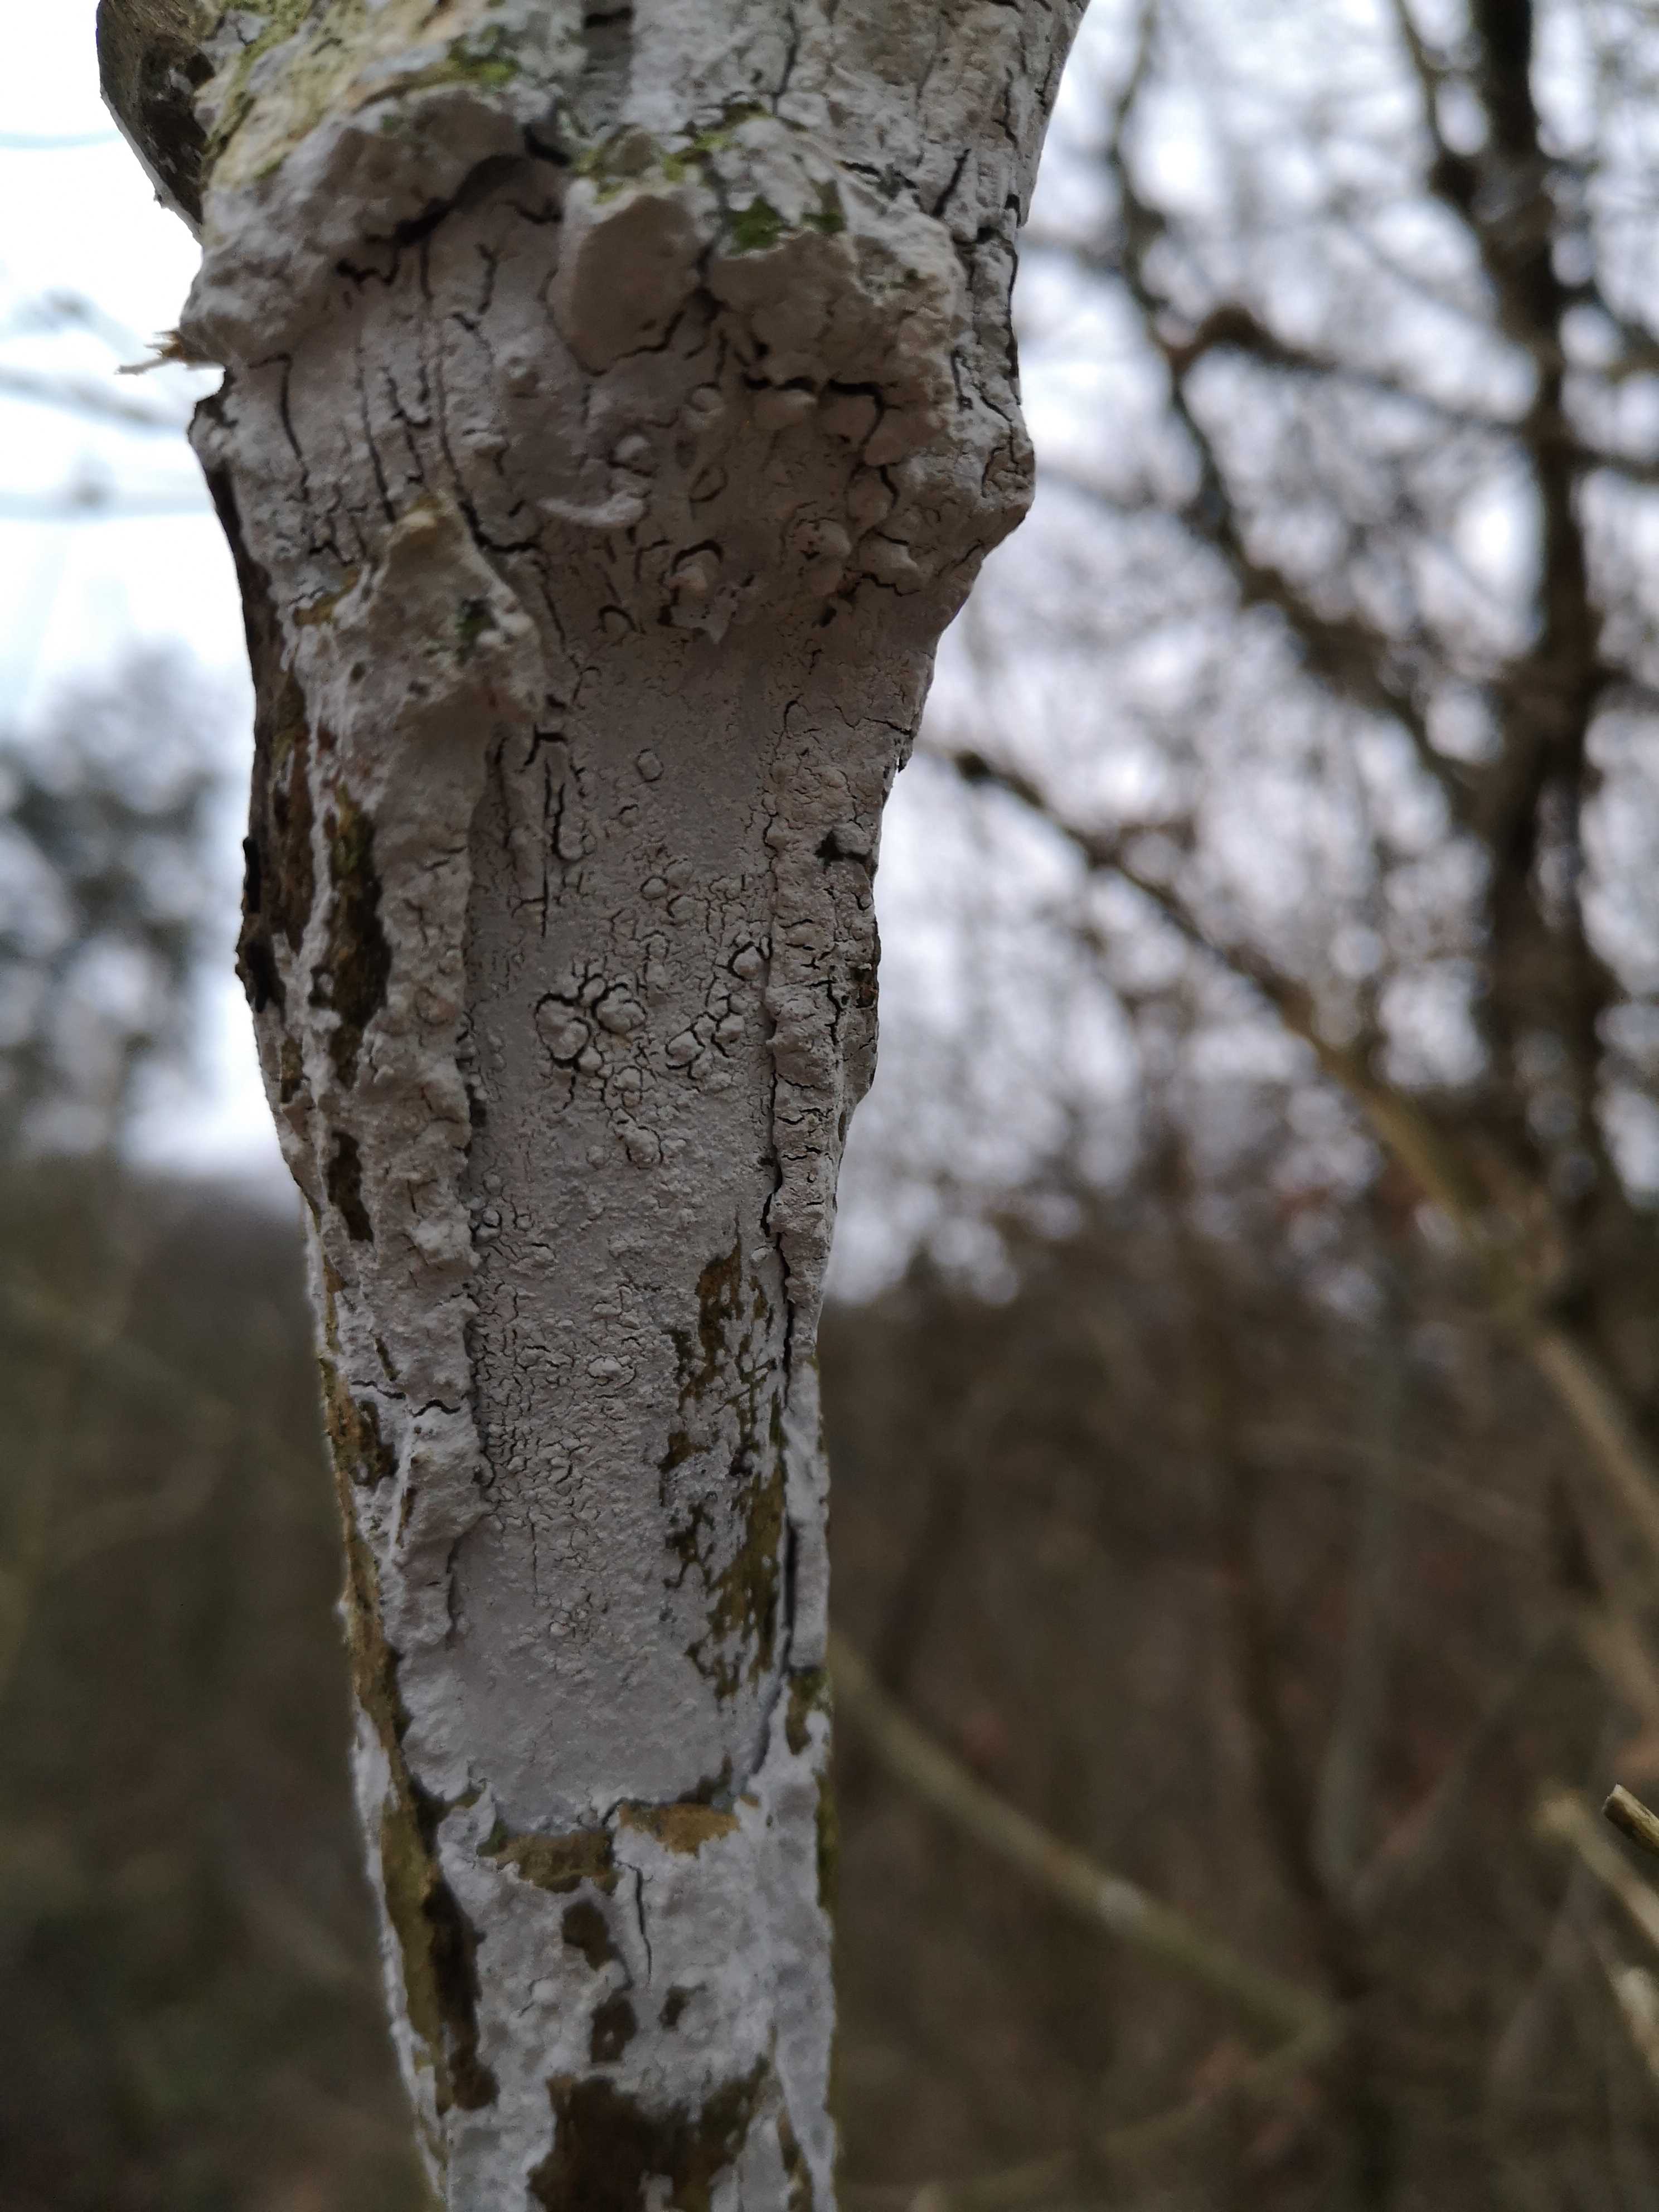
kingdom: Fungi
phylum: Basidiomycota
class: Agaricomycetes
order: Corticiales
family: Corticiaceae
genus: Lyomyces
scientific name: Lyomyces sambuci
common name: almindelig hyldehinde
